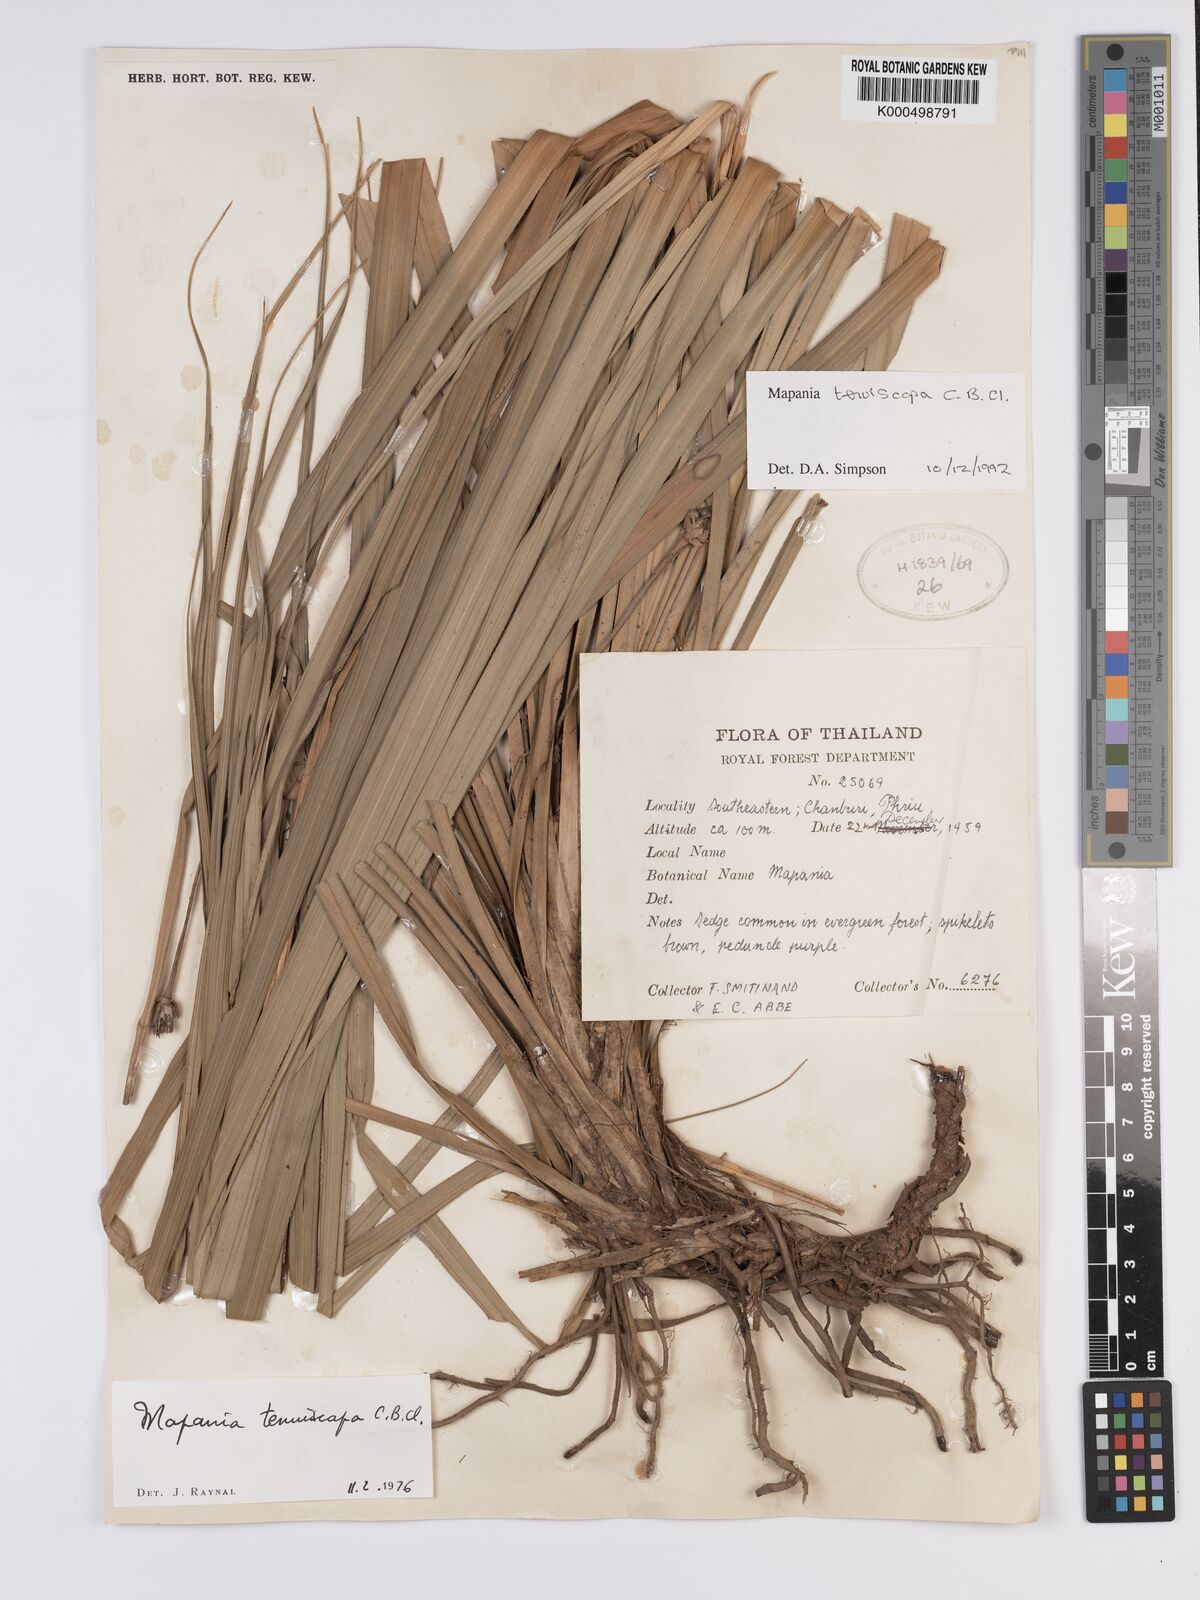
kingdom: Plantae
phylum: Tracheophyta
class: Liliopsida
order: Poales
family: Cyperaceae
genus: Mapania
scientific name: Mapania tenuiscapa
